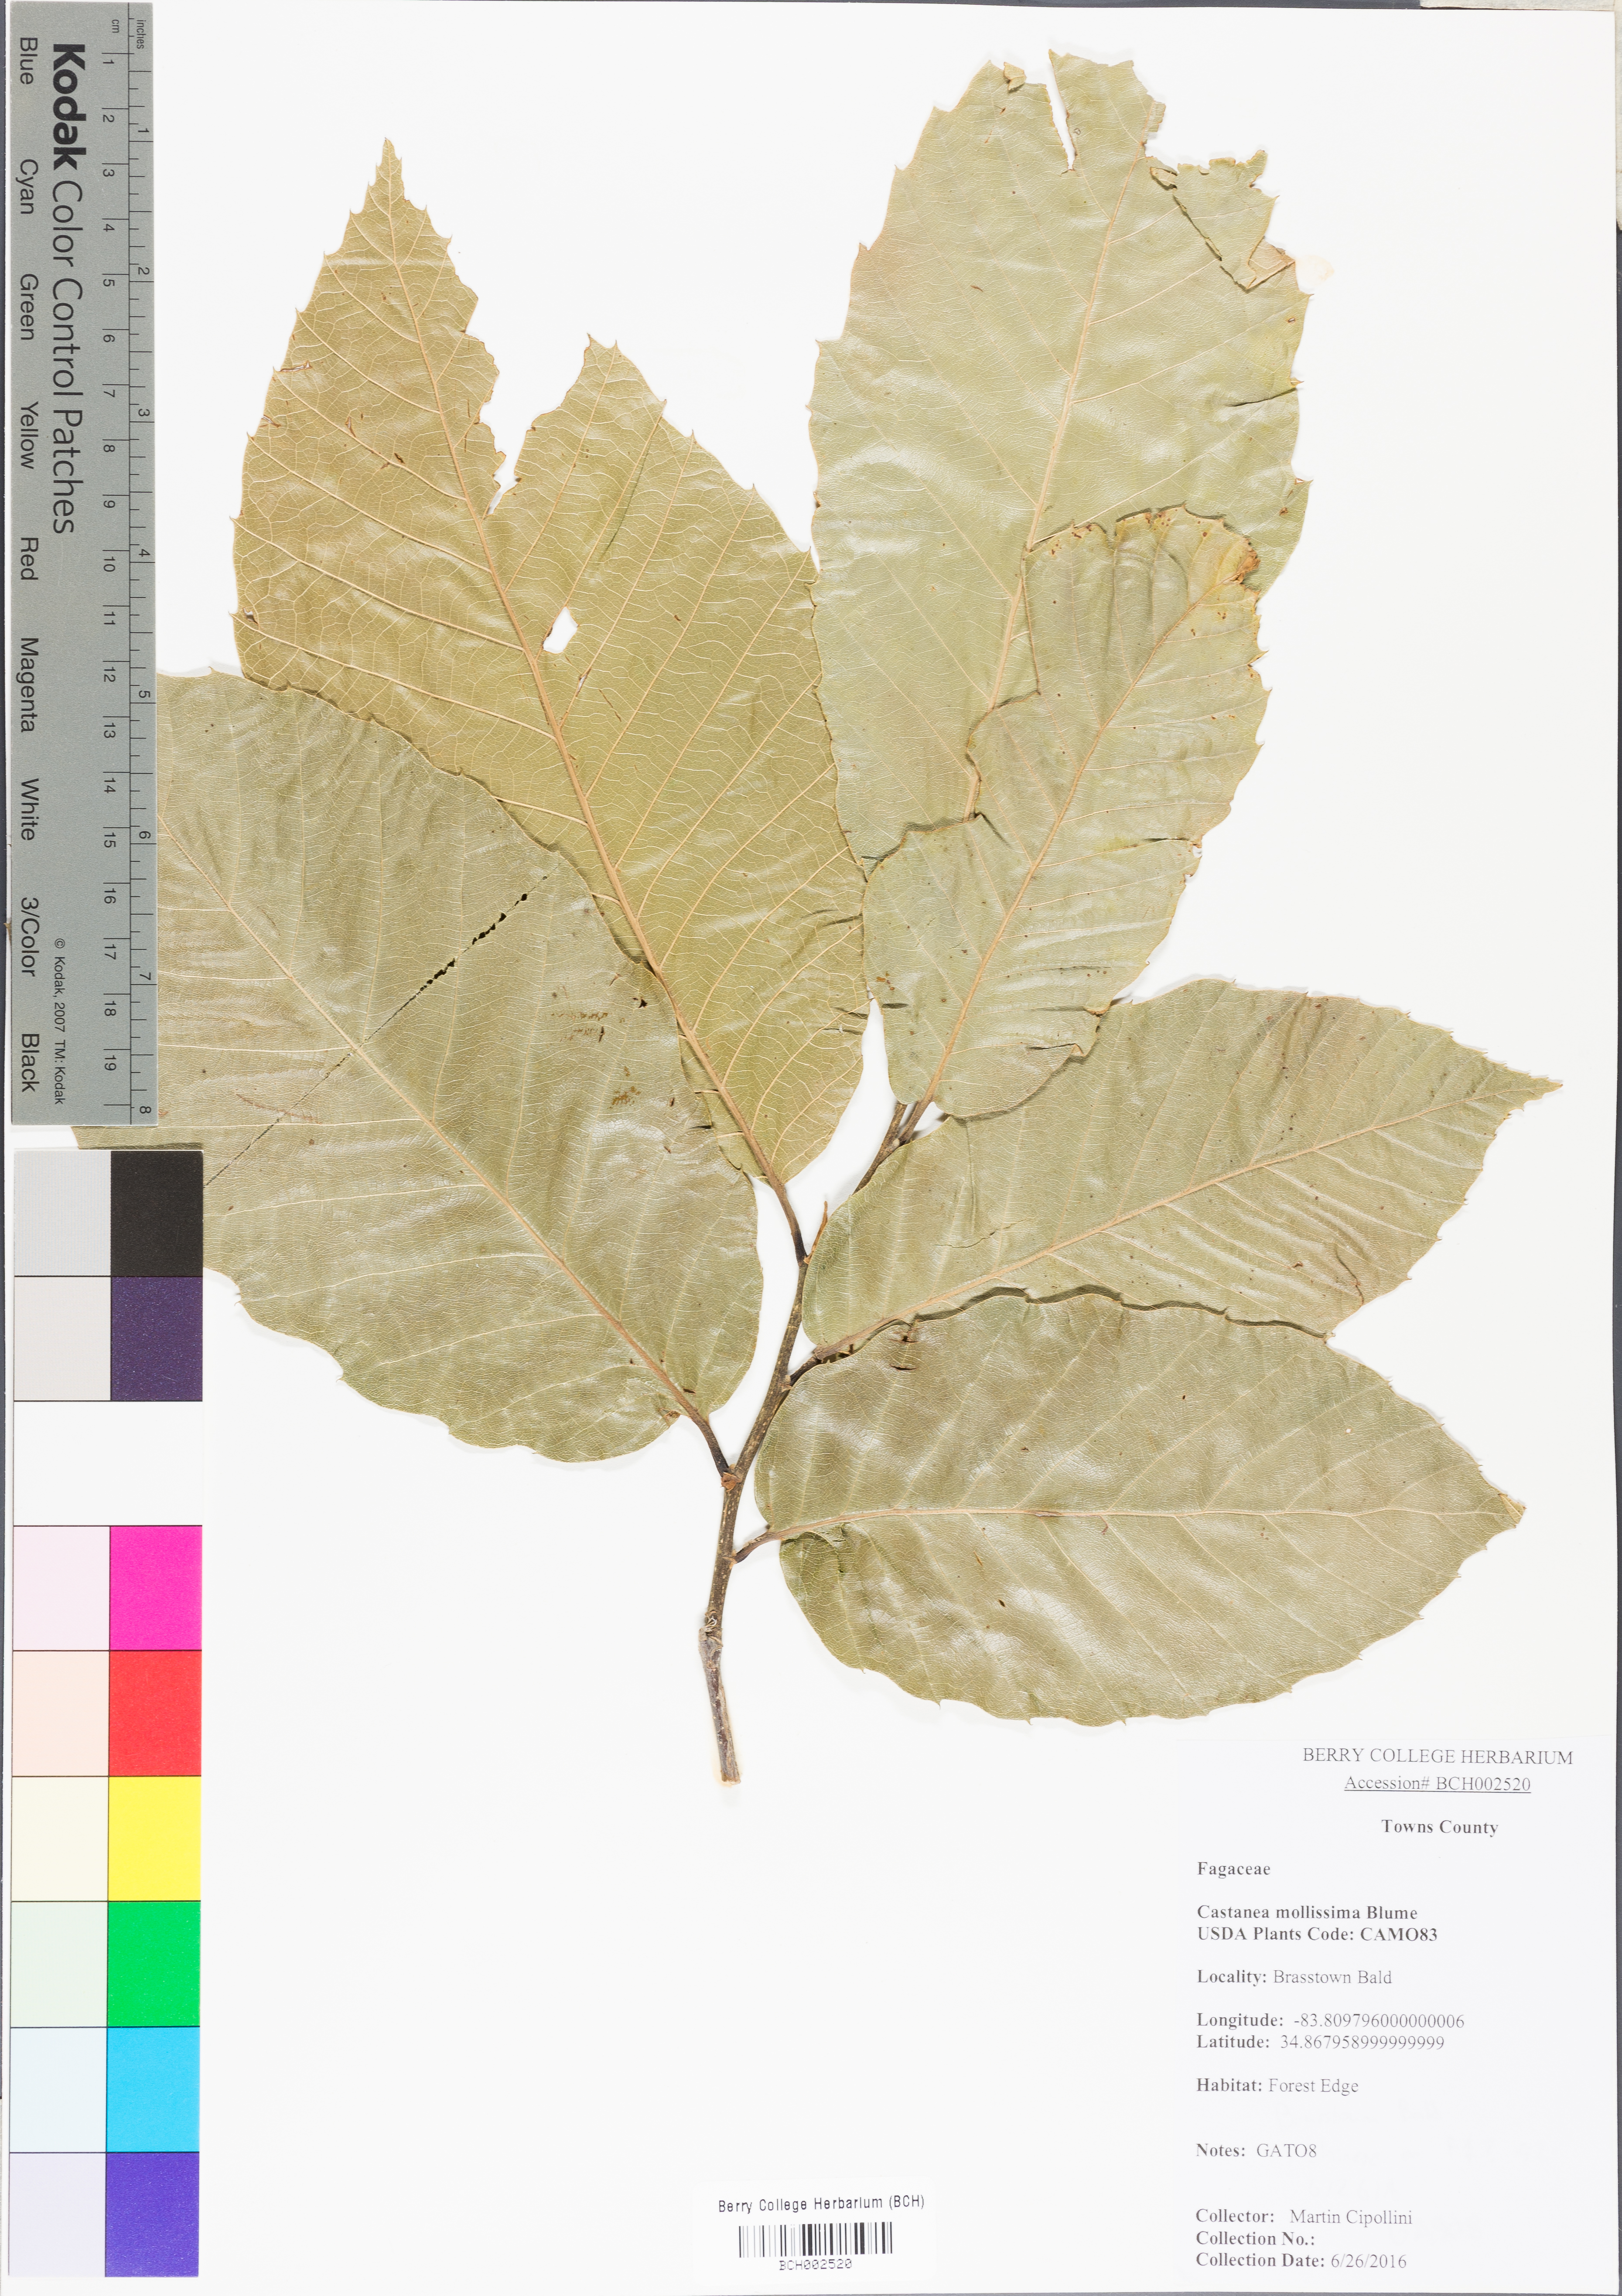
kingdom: Plantae
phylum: Tracheophyta
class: Magnoliopsida
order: Fagales
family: Fagaceae
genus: Castanea
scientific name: Castanea mollissima
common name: Chinese chestnut
